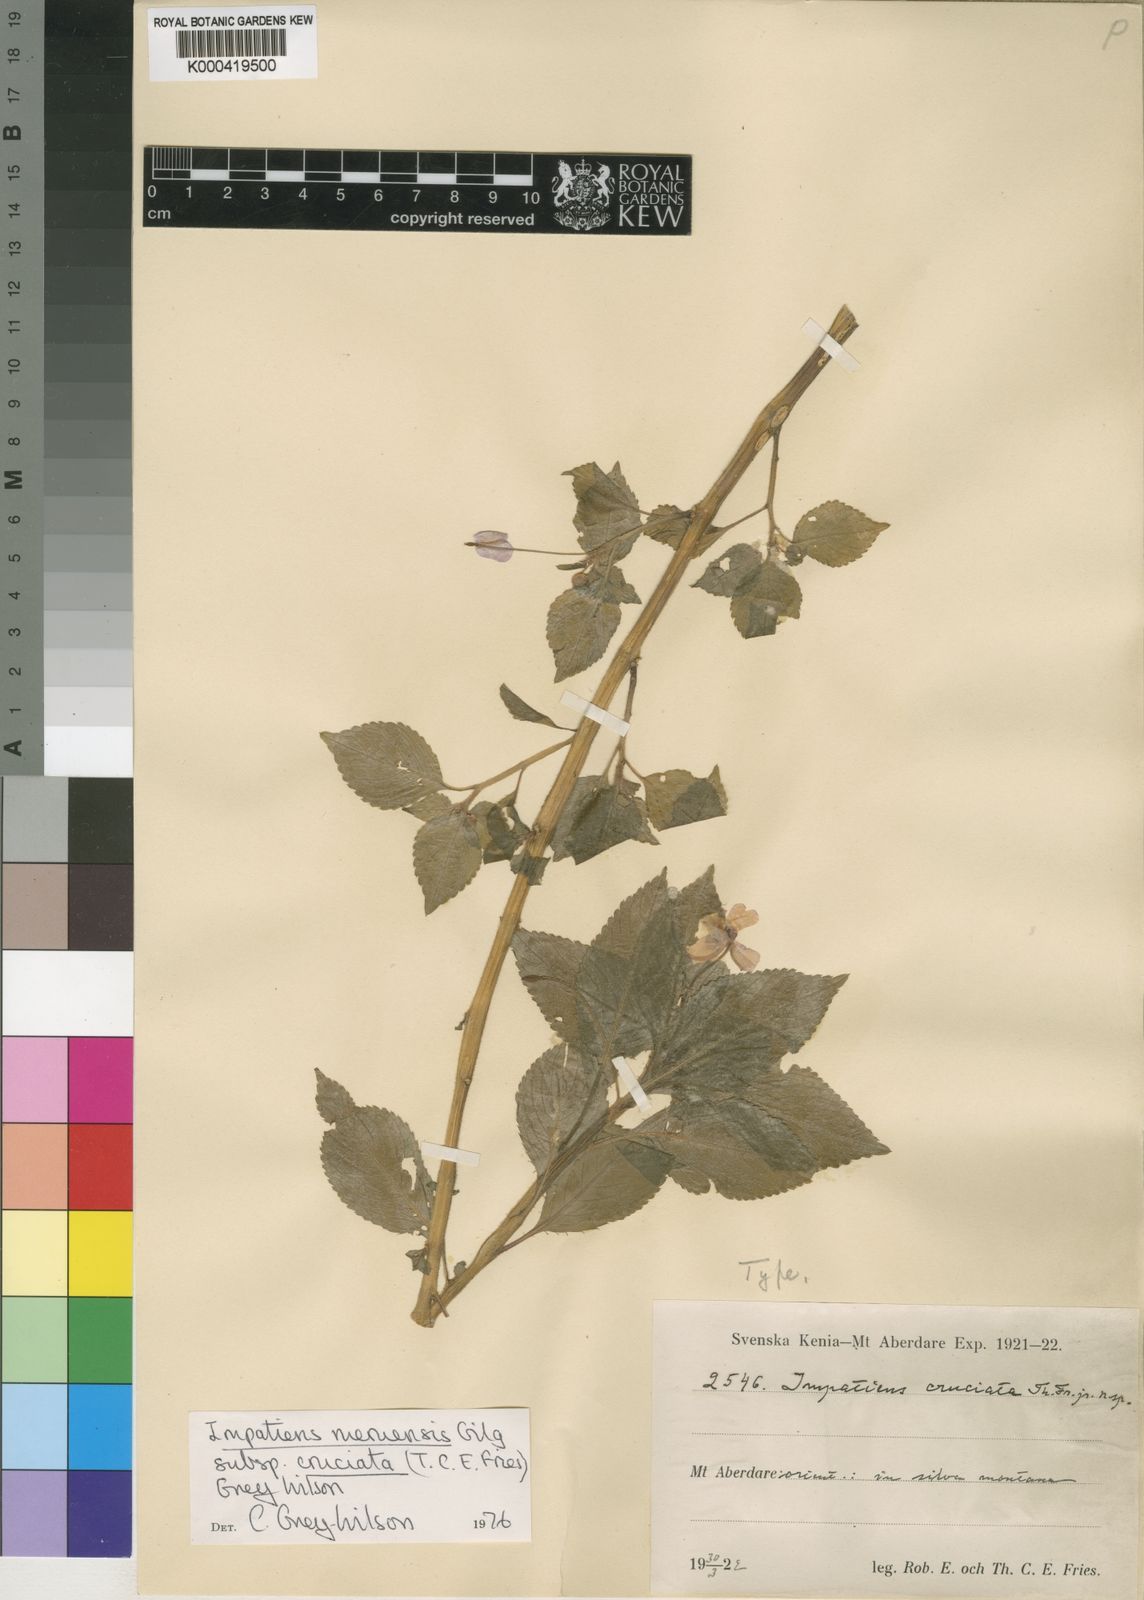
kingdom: Plantae
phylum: Tracheophyta
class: Magnoliopsida
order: Ericales
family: Balsaminaceae
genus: Impatiens
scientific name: Impatiens meruensis
